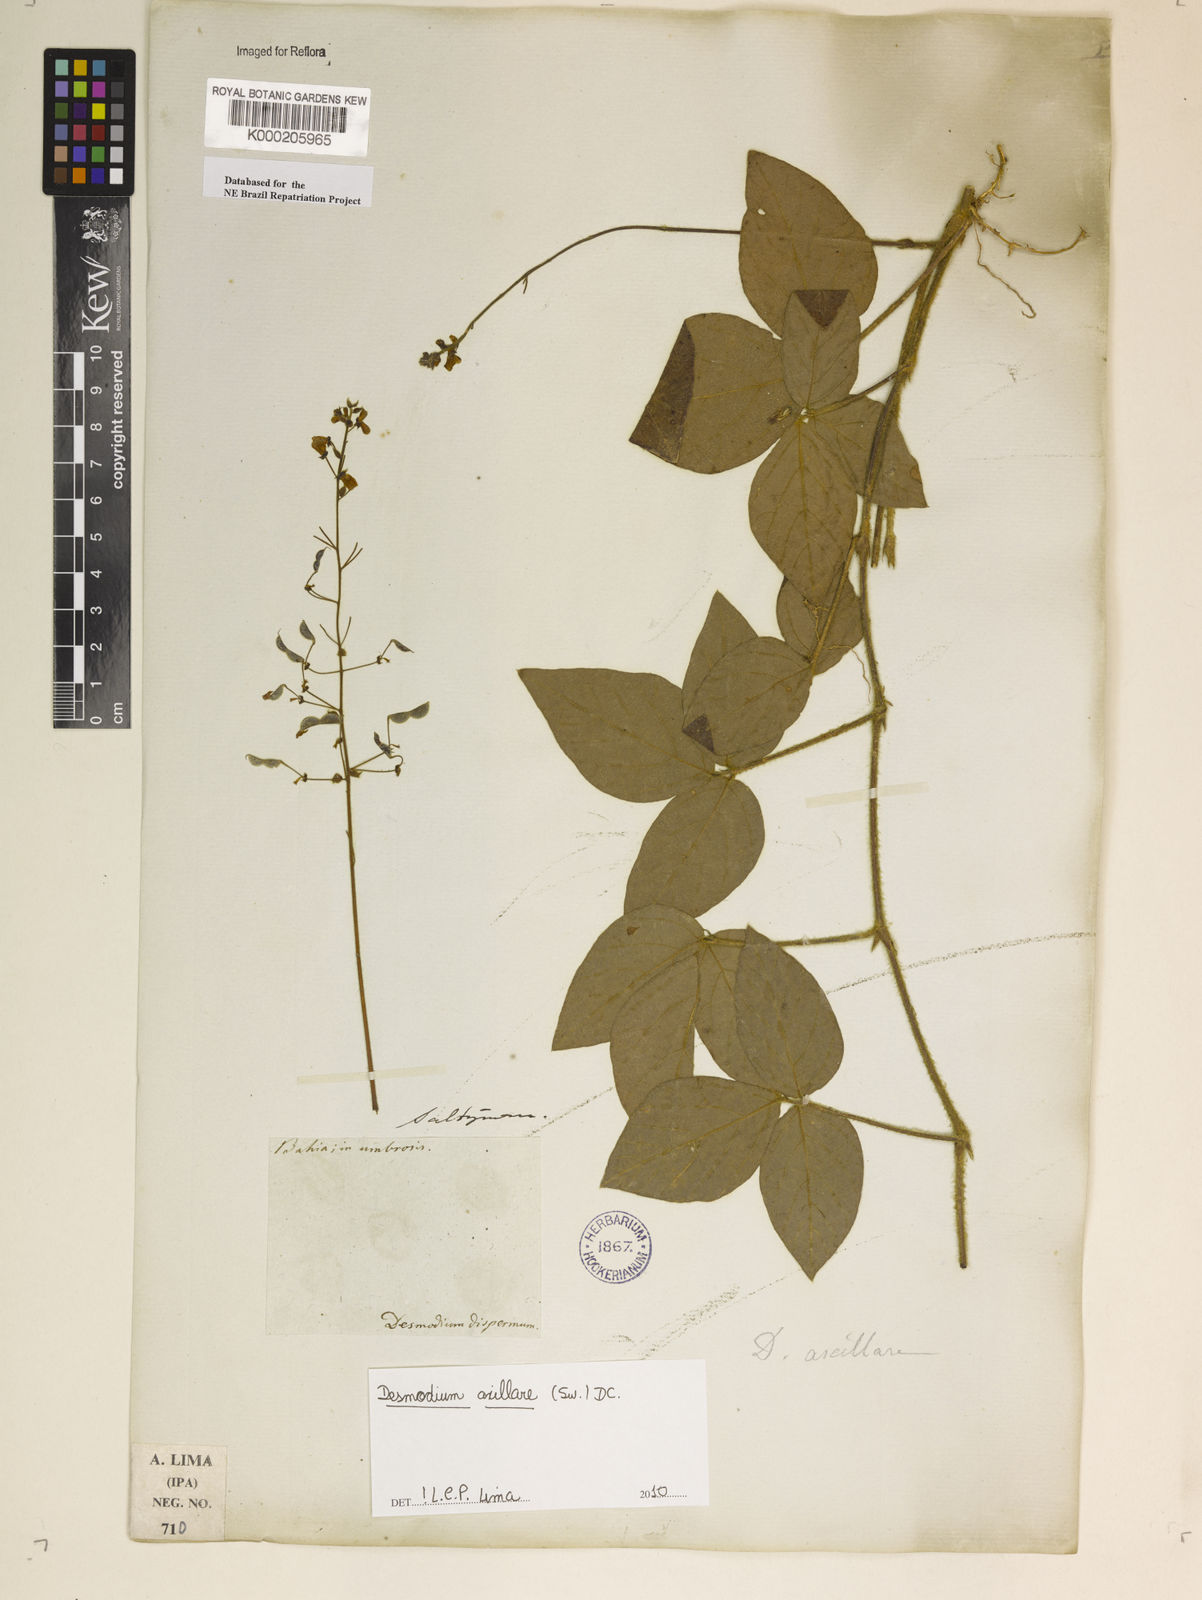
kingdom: Plantae
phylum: Tracheophyta
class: Magnoliopsida
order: Fabales
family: Fabaceae
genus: Desmodium
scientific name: Desmodium axillare
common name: Wire with
